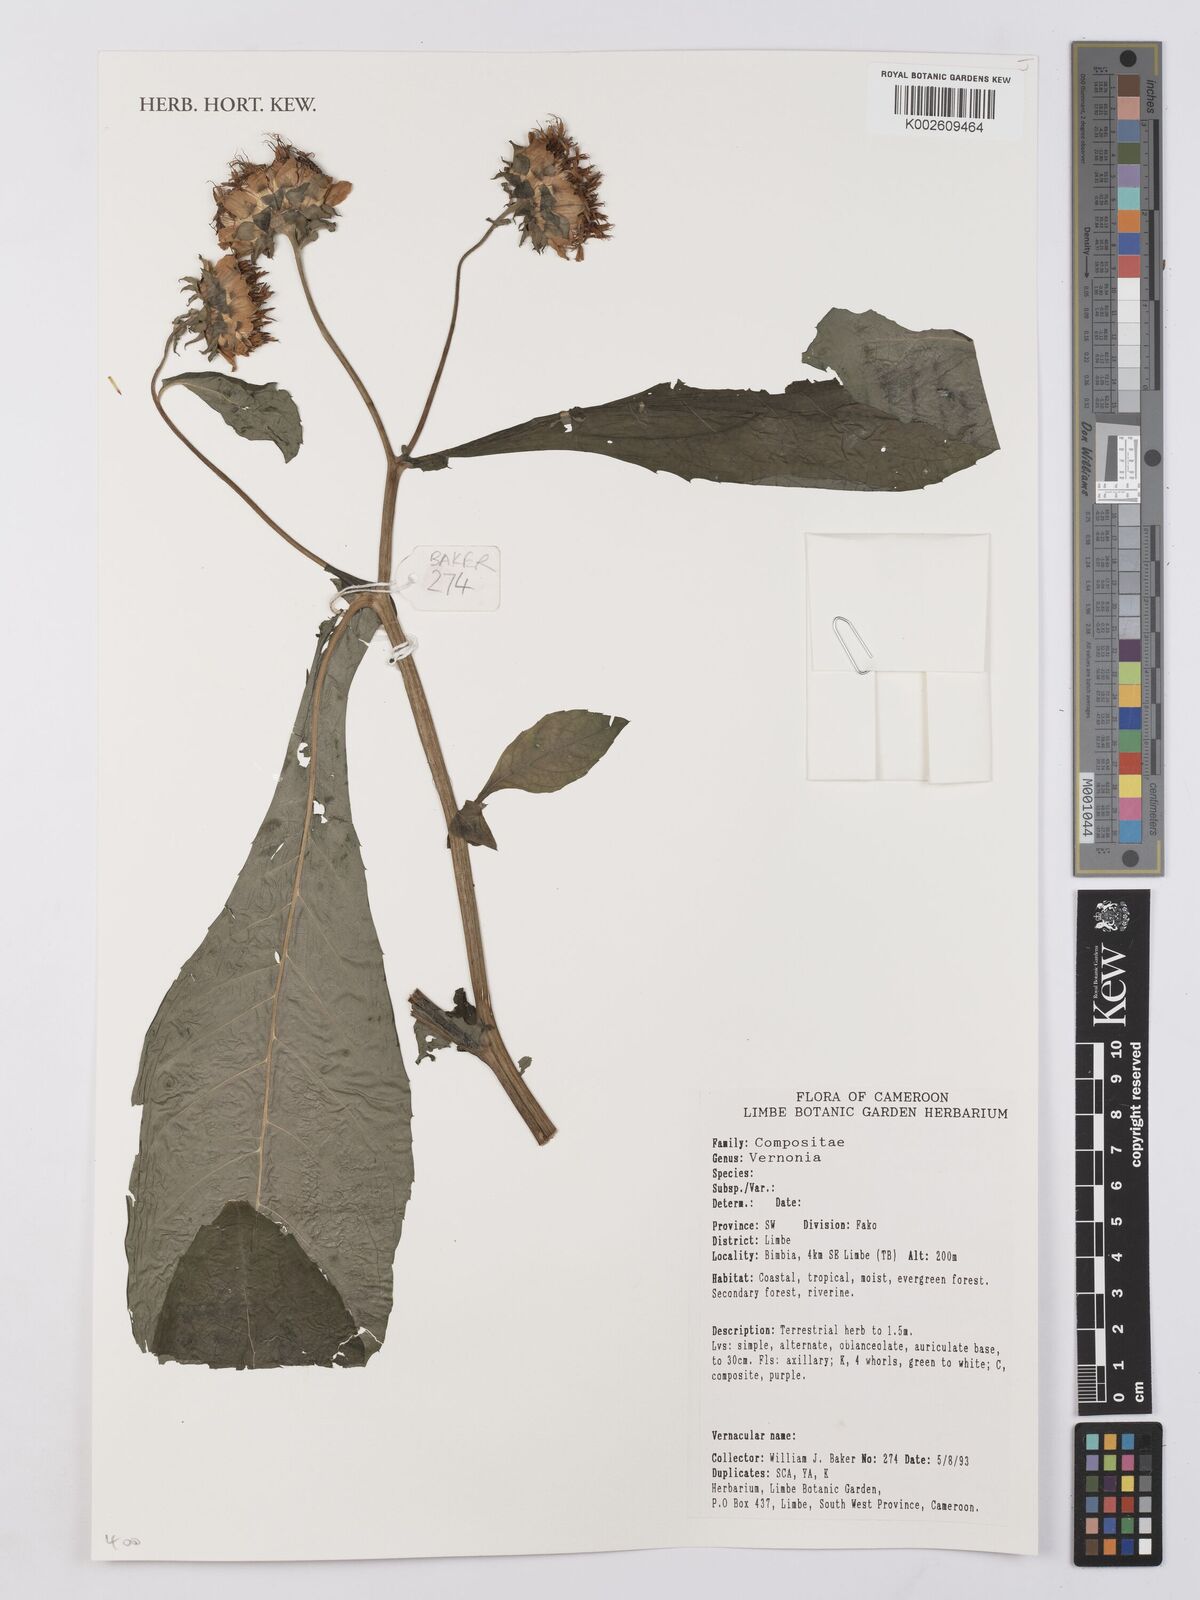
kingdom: Plantae
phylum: Tracheophyta
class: Magnoliopsida
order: Asterales
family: Asteraceae
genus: Vernonia
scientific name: Vernonia
